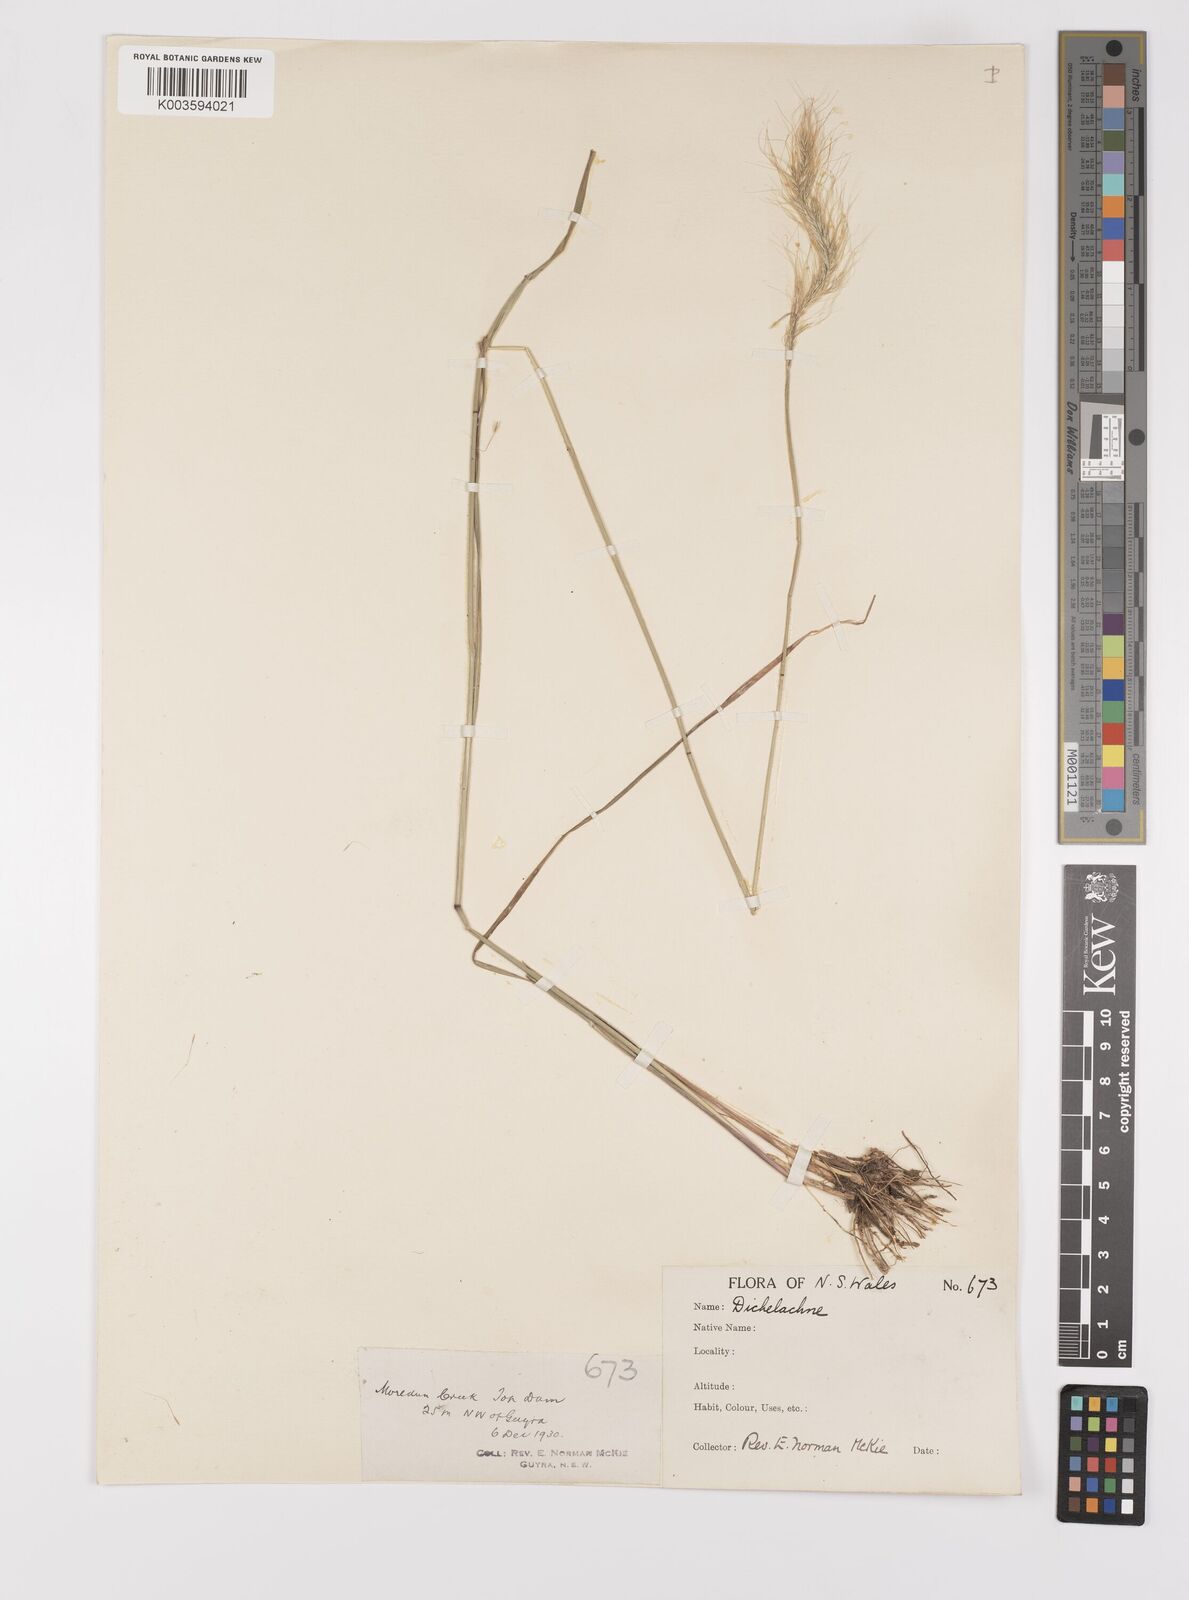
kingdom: Plantae
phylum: Tracheophyta
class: Liliopsida
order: Poales
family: Poaceae
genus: Dichelachne
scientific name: Dichelachne micrantha
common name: Plumegrass
